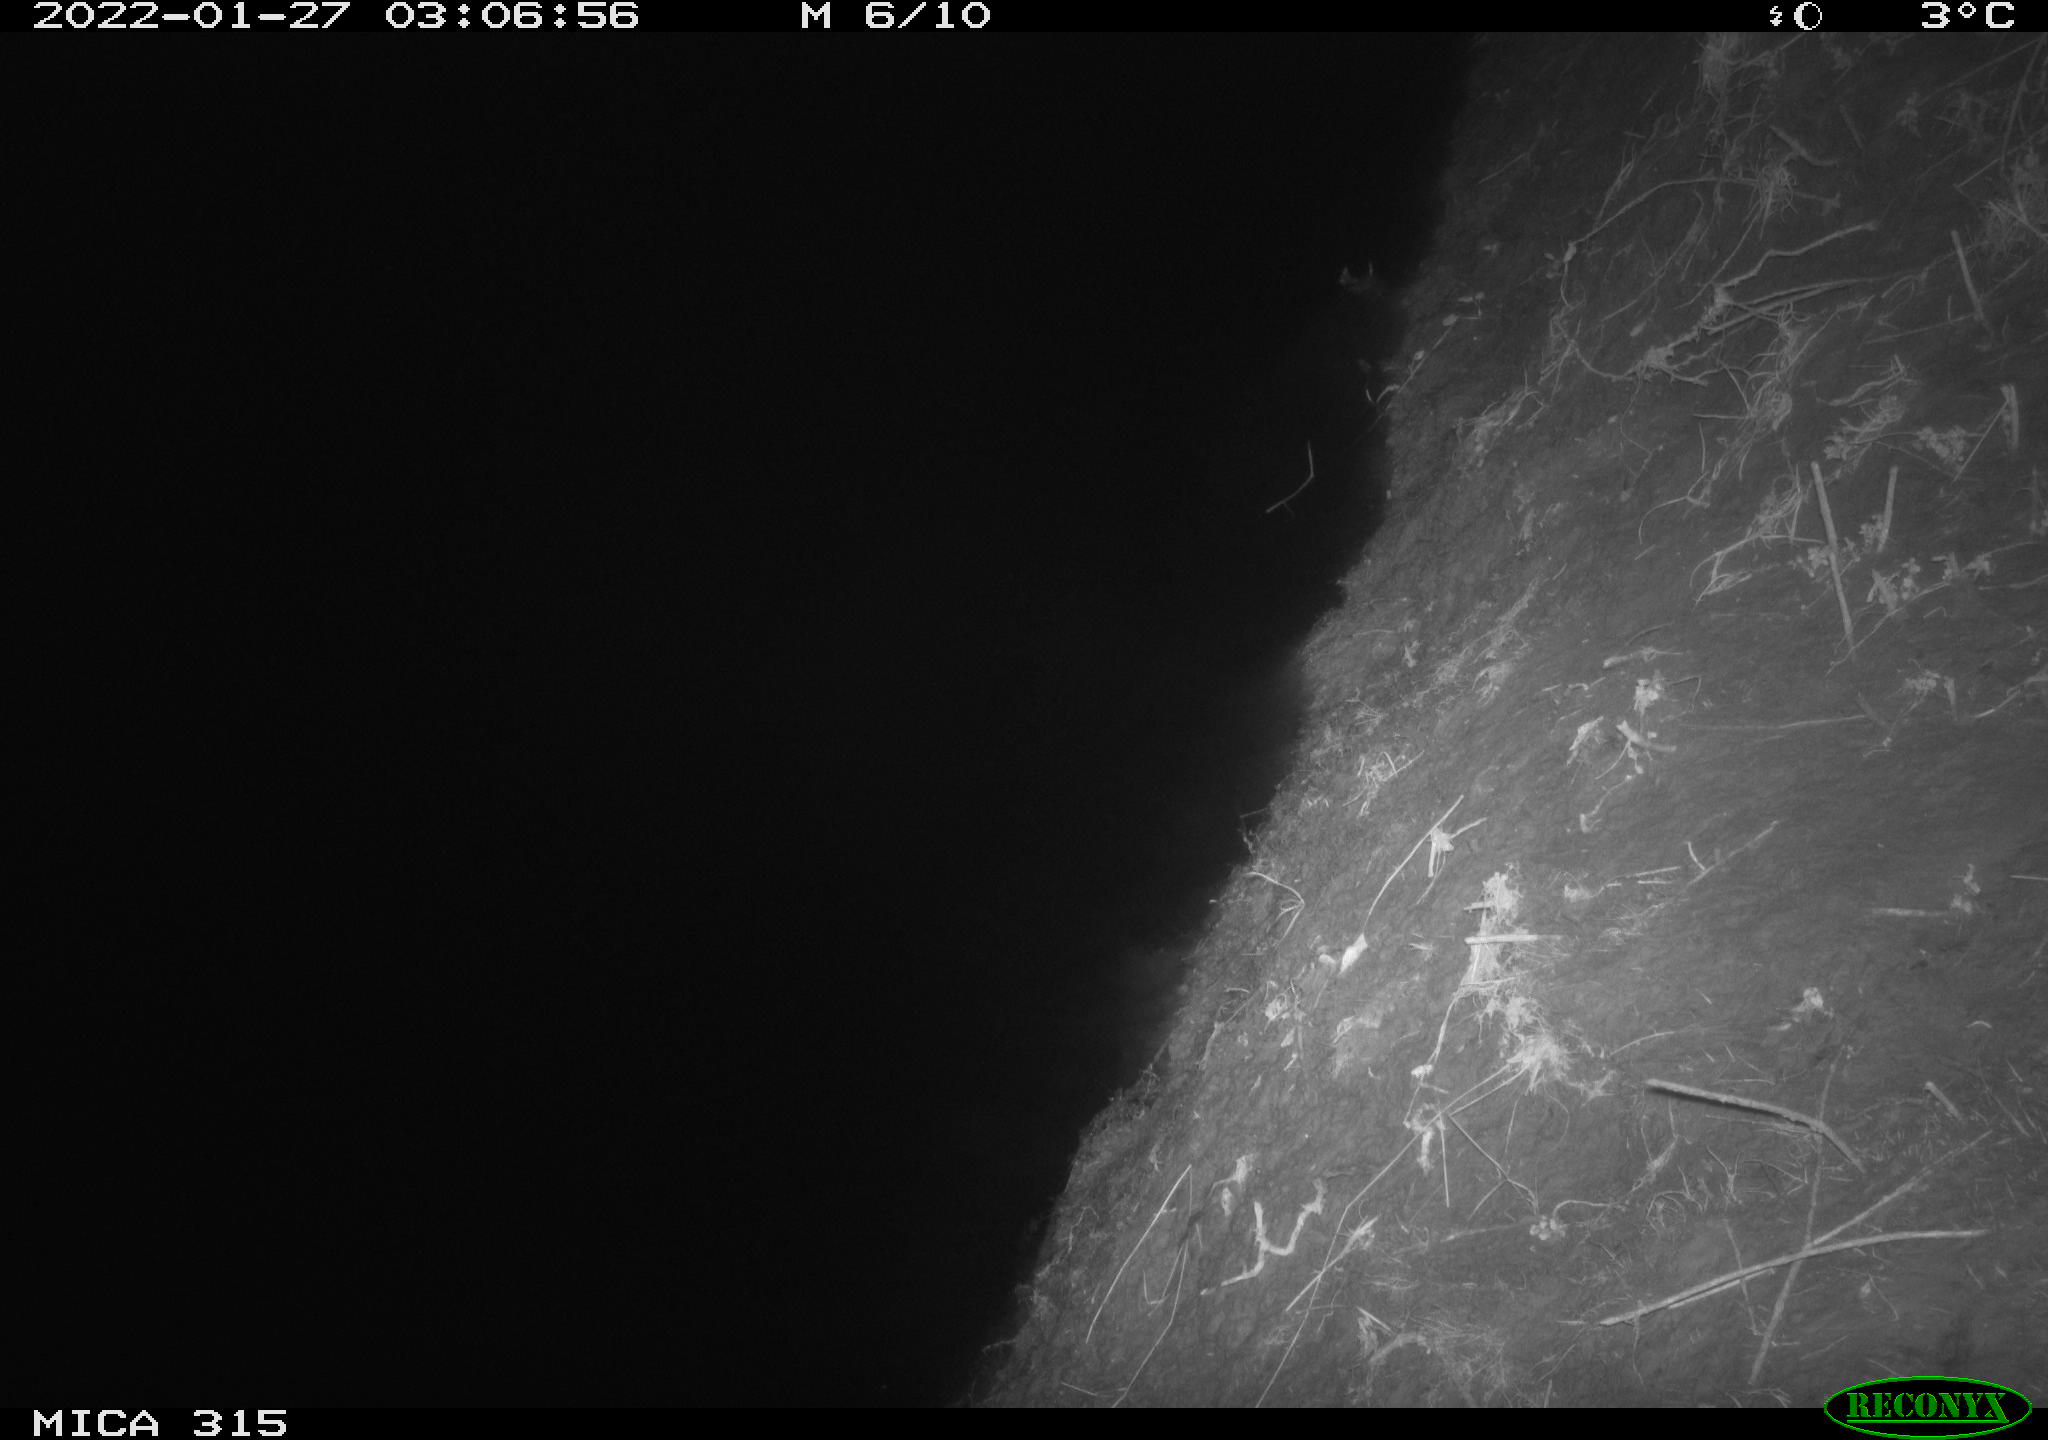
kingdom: Animalia
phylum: Chordata
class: Mammalia
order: Rodentia
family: Muridae
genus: Rattus
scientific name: Rattus norvegicus
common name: Brown rat
